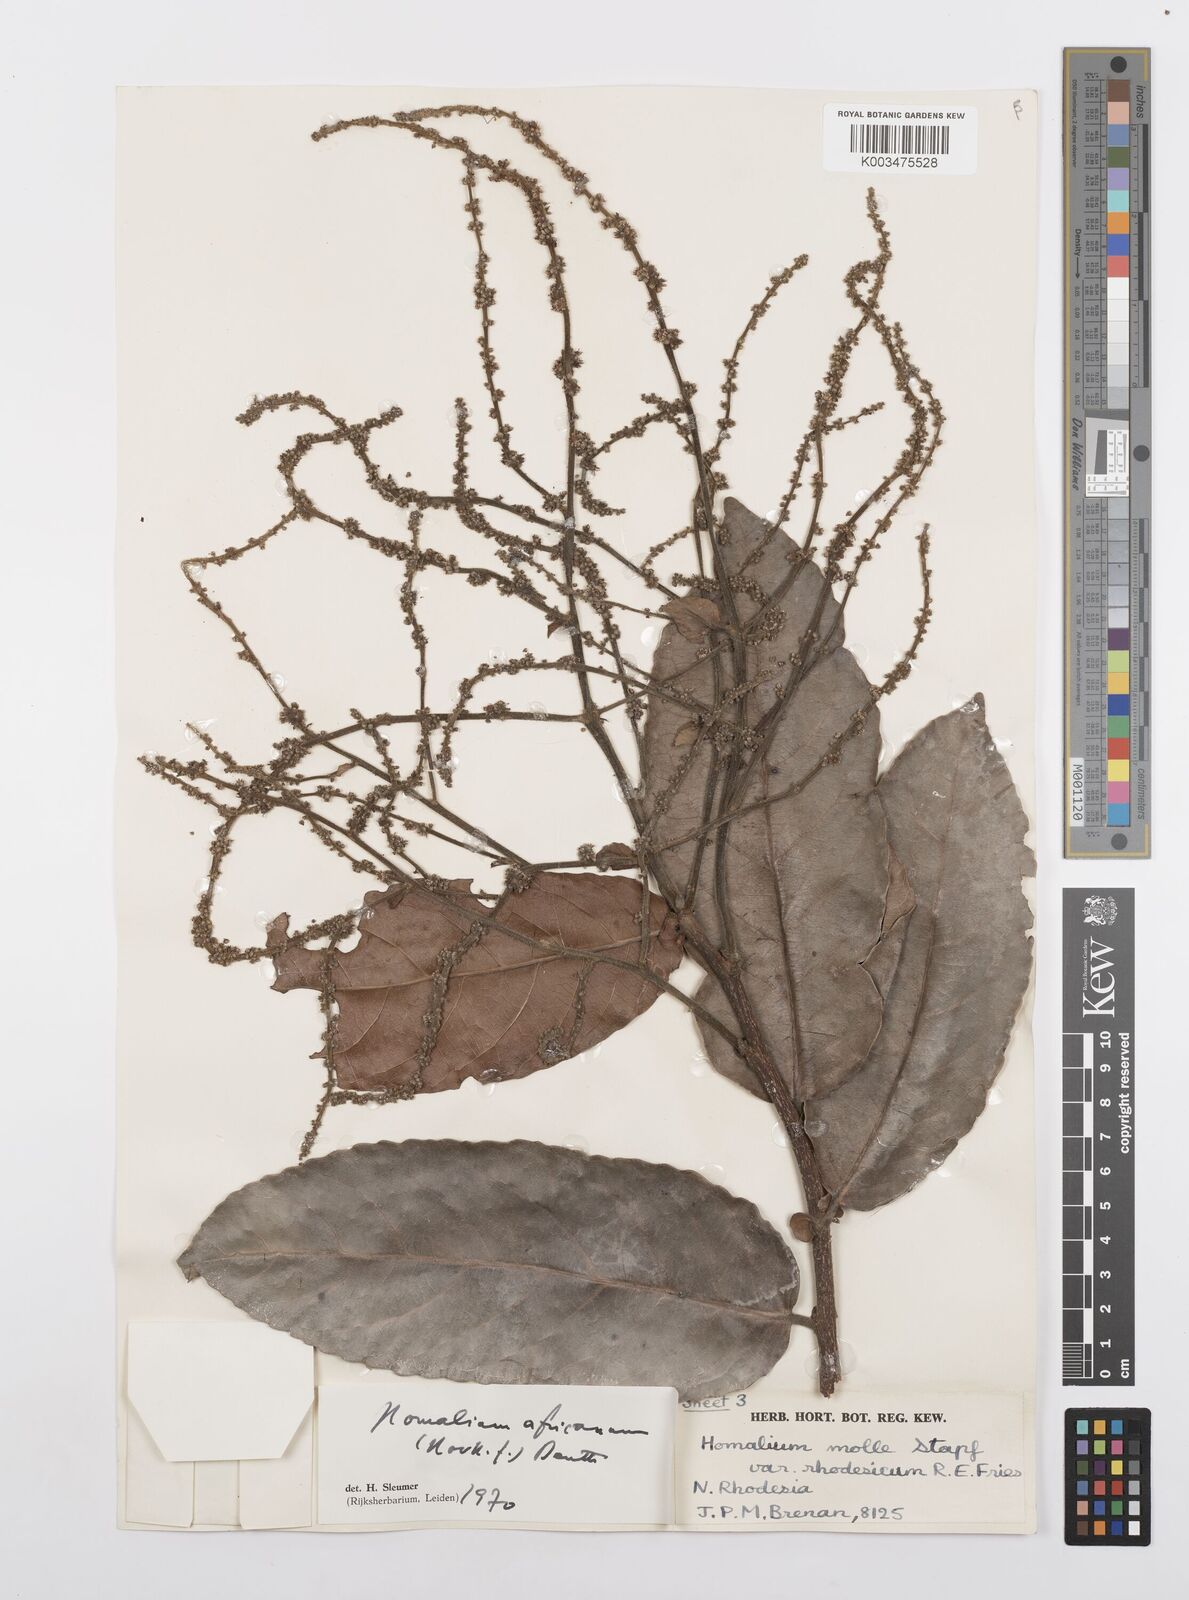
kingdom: Plantae
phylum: Tracheophyta
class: Magnoliopsida
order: Malpighiales
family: Salicaceae
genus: Homalium
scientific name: Homalium africanum
